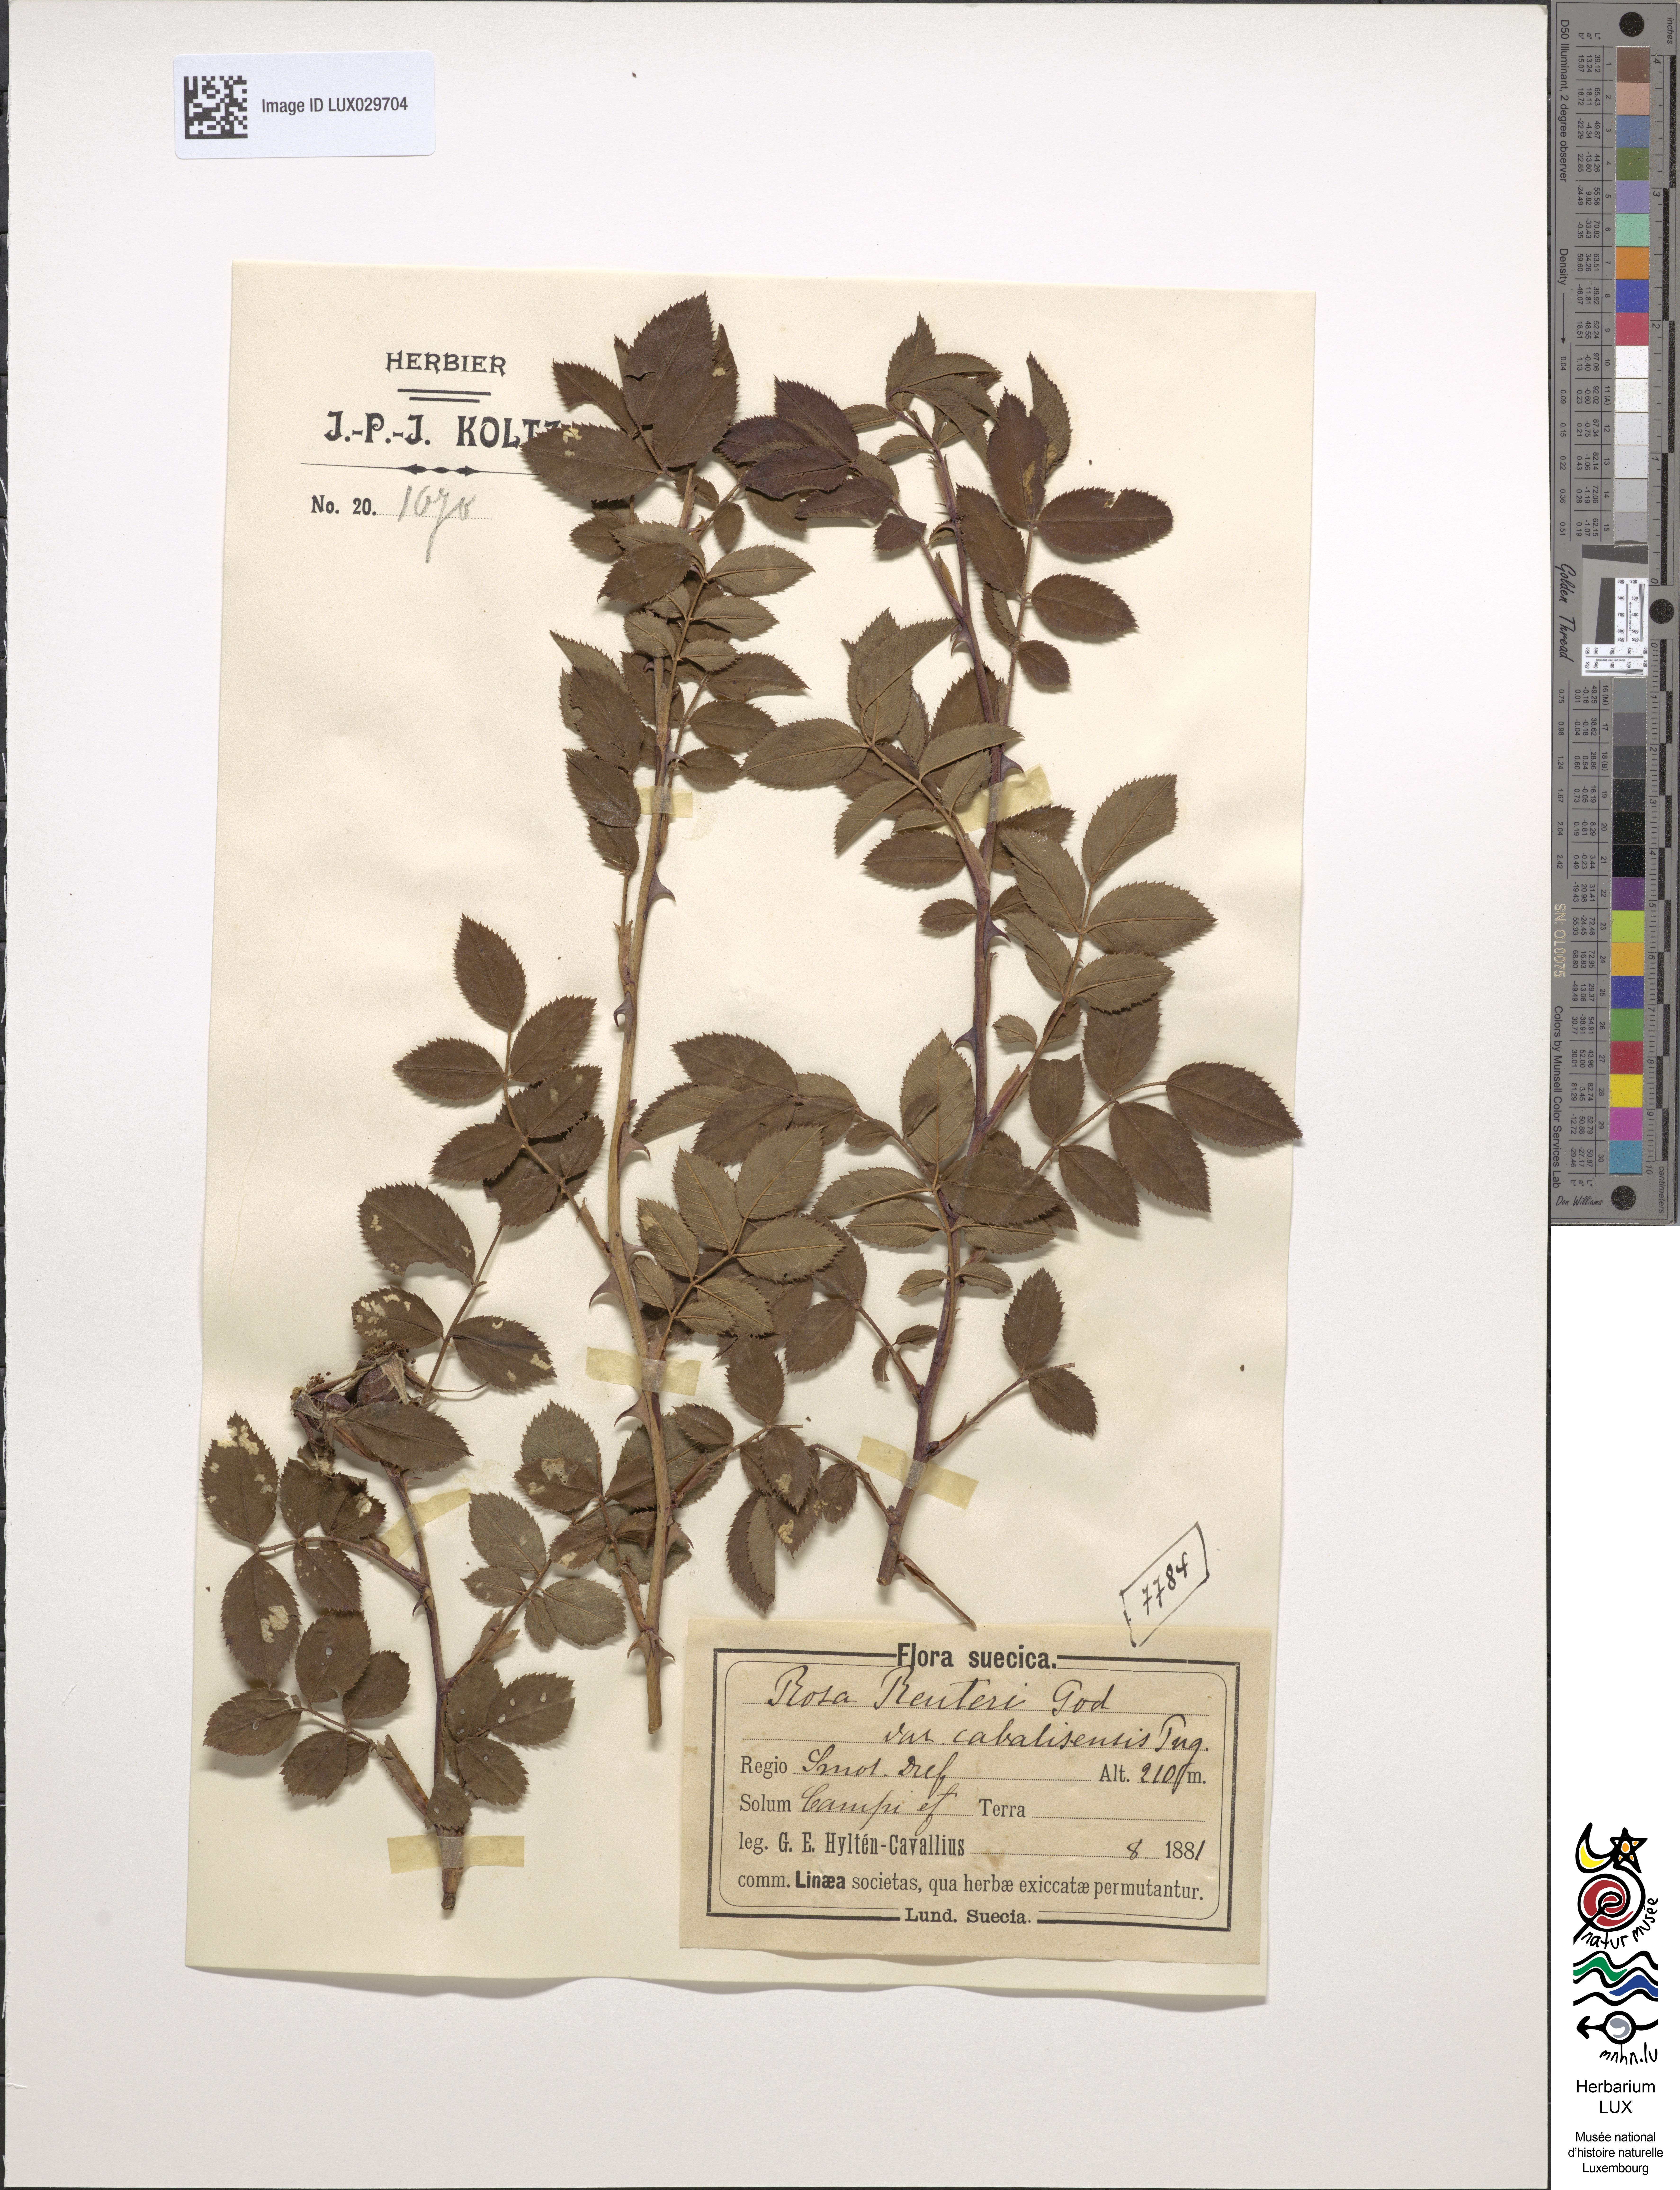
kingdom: Plantae
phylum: Tracheophyta
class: Magnoliopsida
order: Rosales
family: Rosaceae
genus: Rosa
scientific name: Rosa caesia
